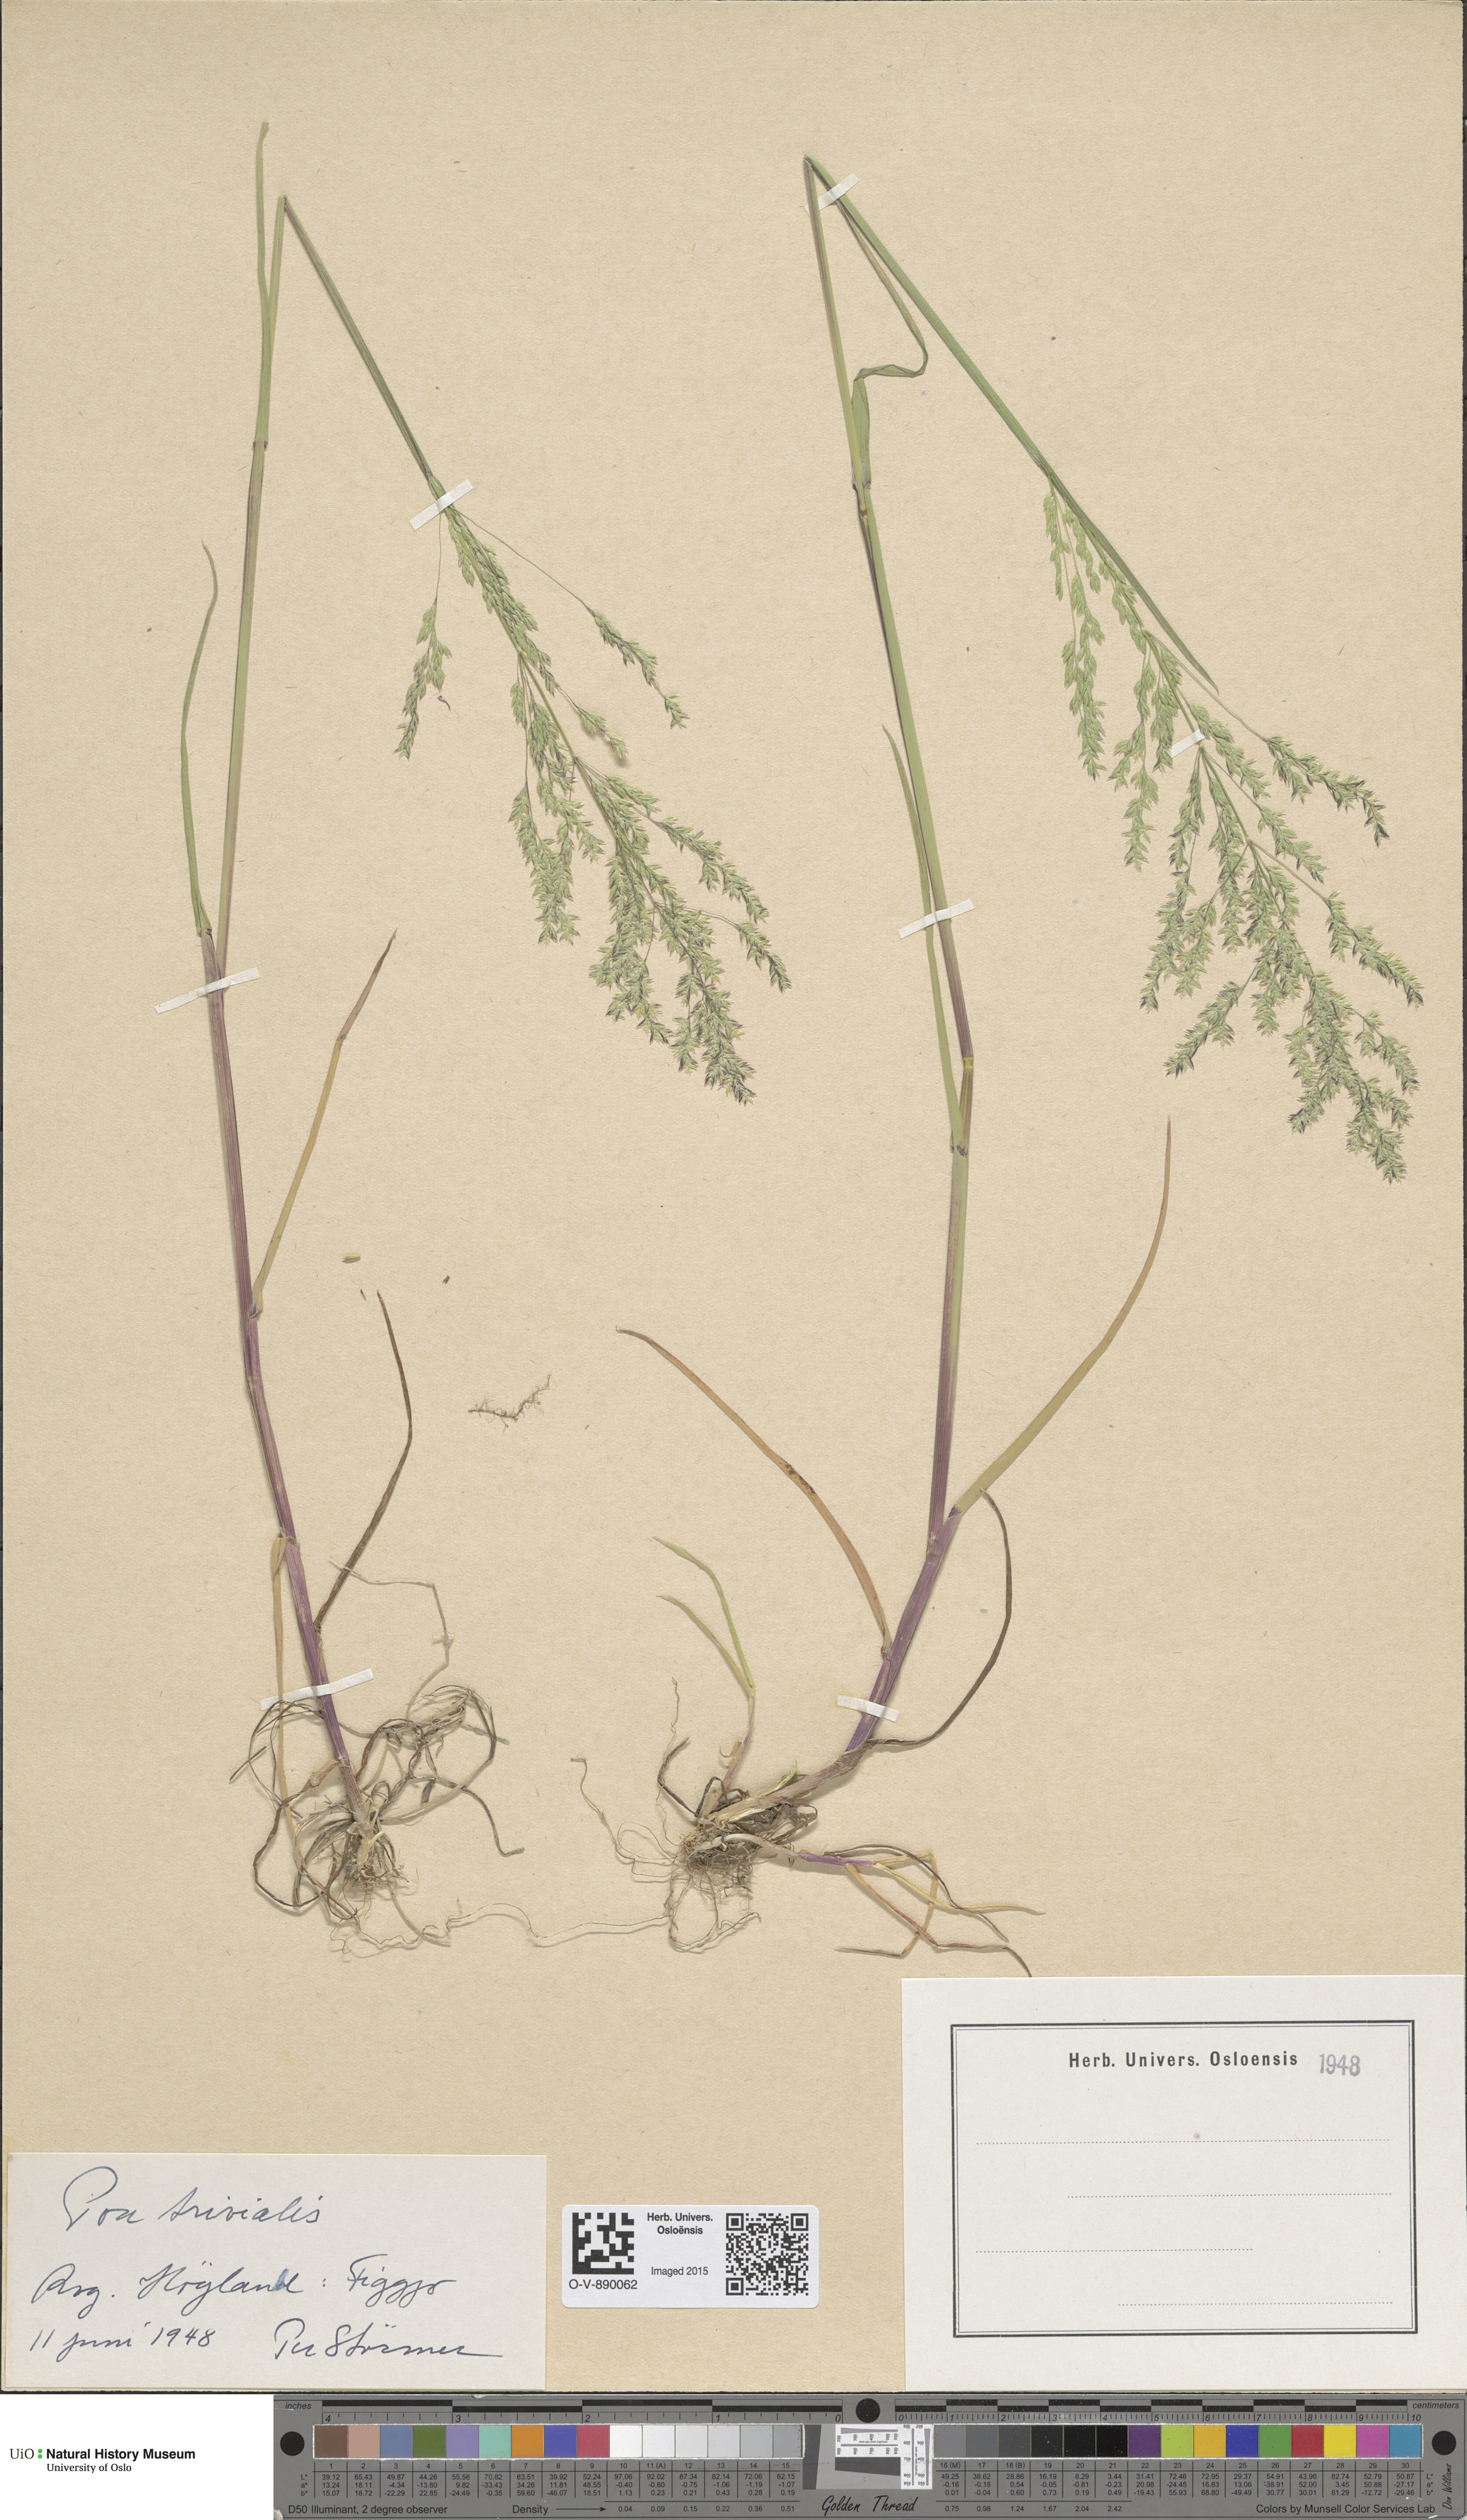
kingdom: Plantae
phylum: Tracheophyta
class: Liliopsida
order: Poales
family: Poaceae
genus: Poa
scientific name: Poa trivialis
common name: Rough bluegrass
